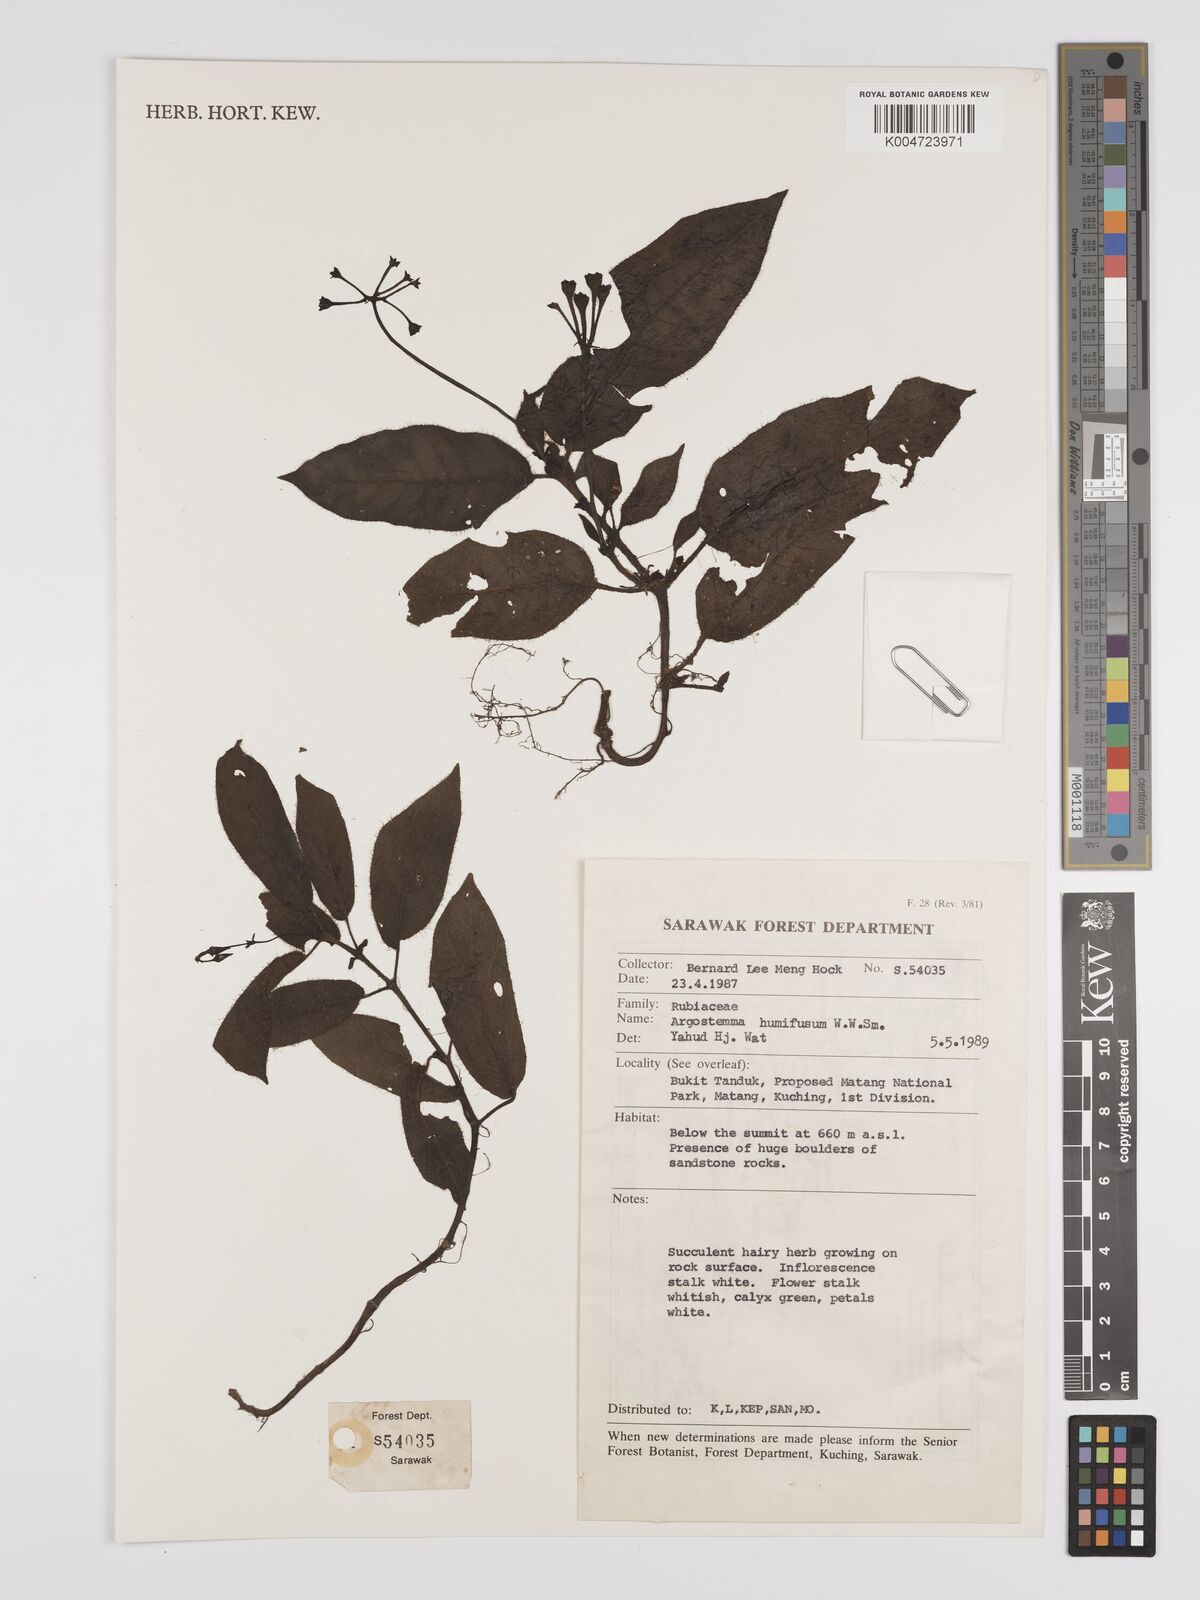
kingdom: Plantae
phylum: Tracheophyta
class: Magnoliopsida
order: Gentianales
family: Rubiaceae
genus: Argostemma
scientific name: Argostemma humifusum
